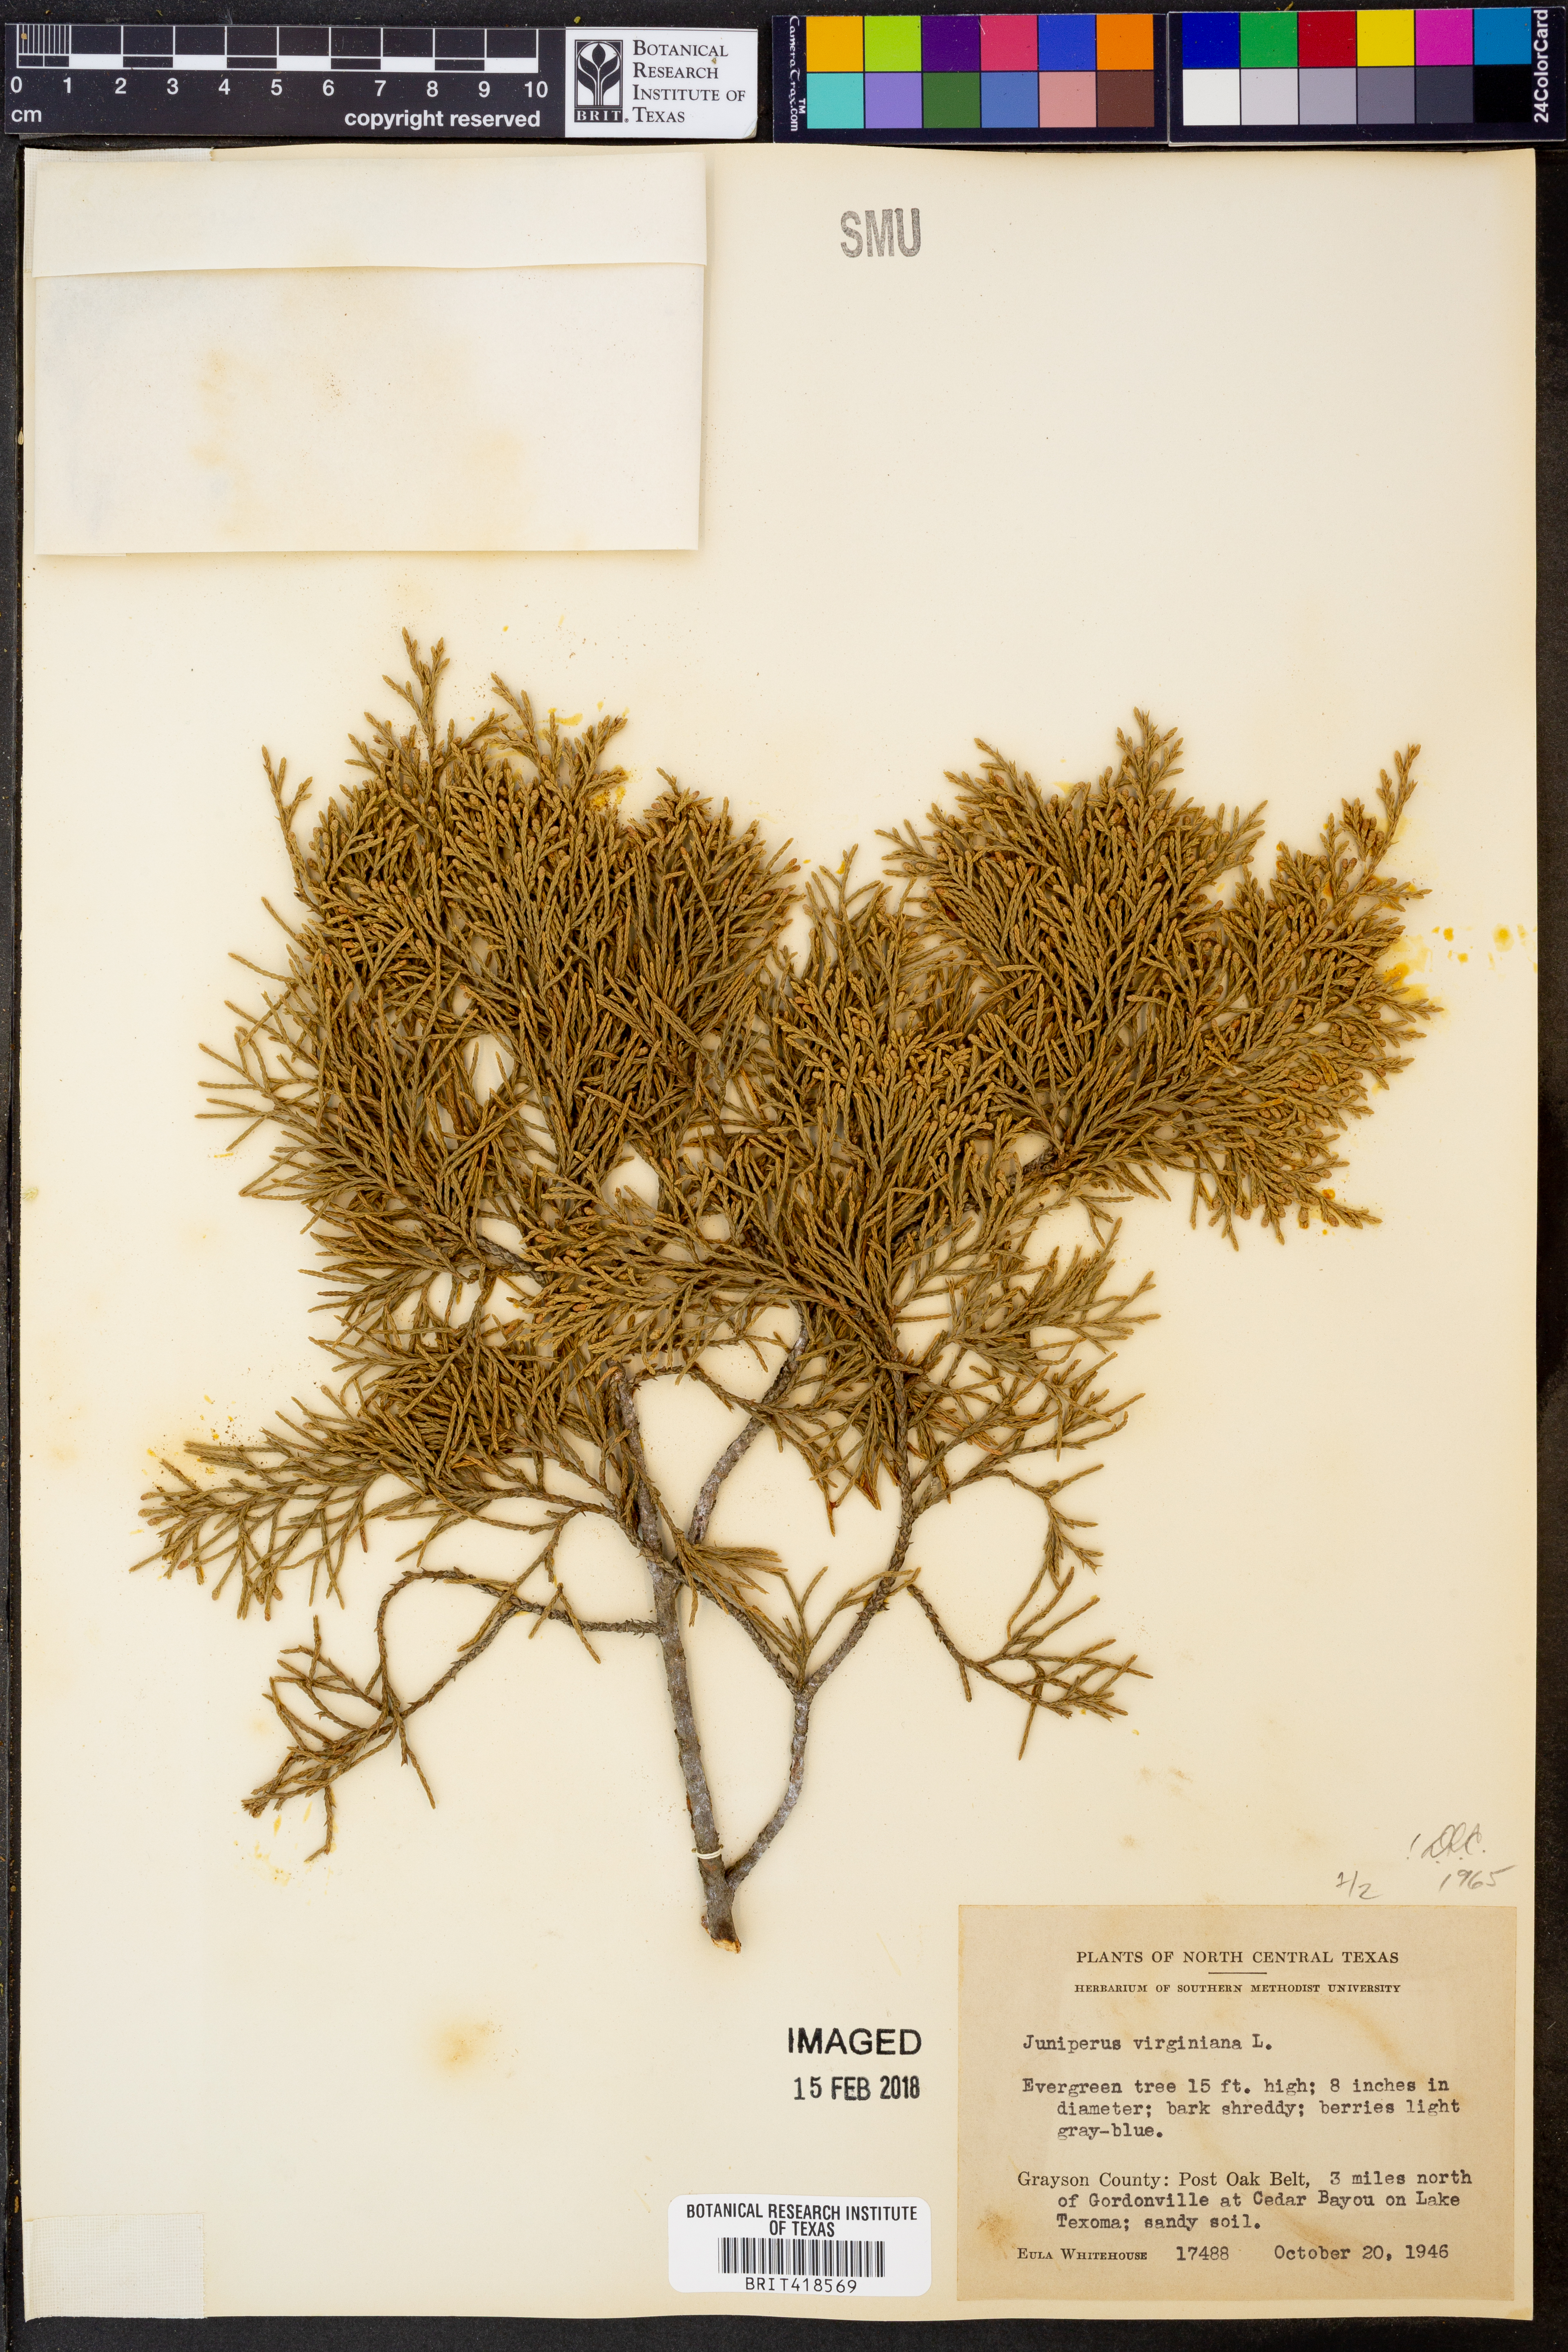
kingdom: Plantae
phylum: Tracheophyta
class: Pinopsida
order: Pinales
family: Cupressaceae
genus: Juniperus
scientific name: Juniperus virginiana
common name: Red juniper
